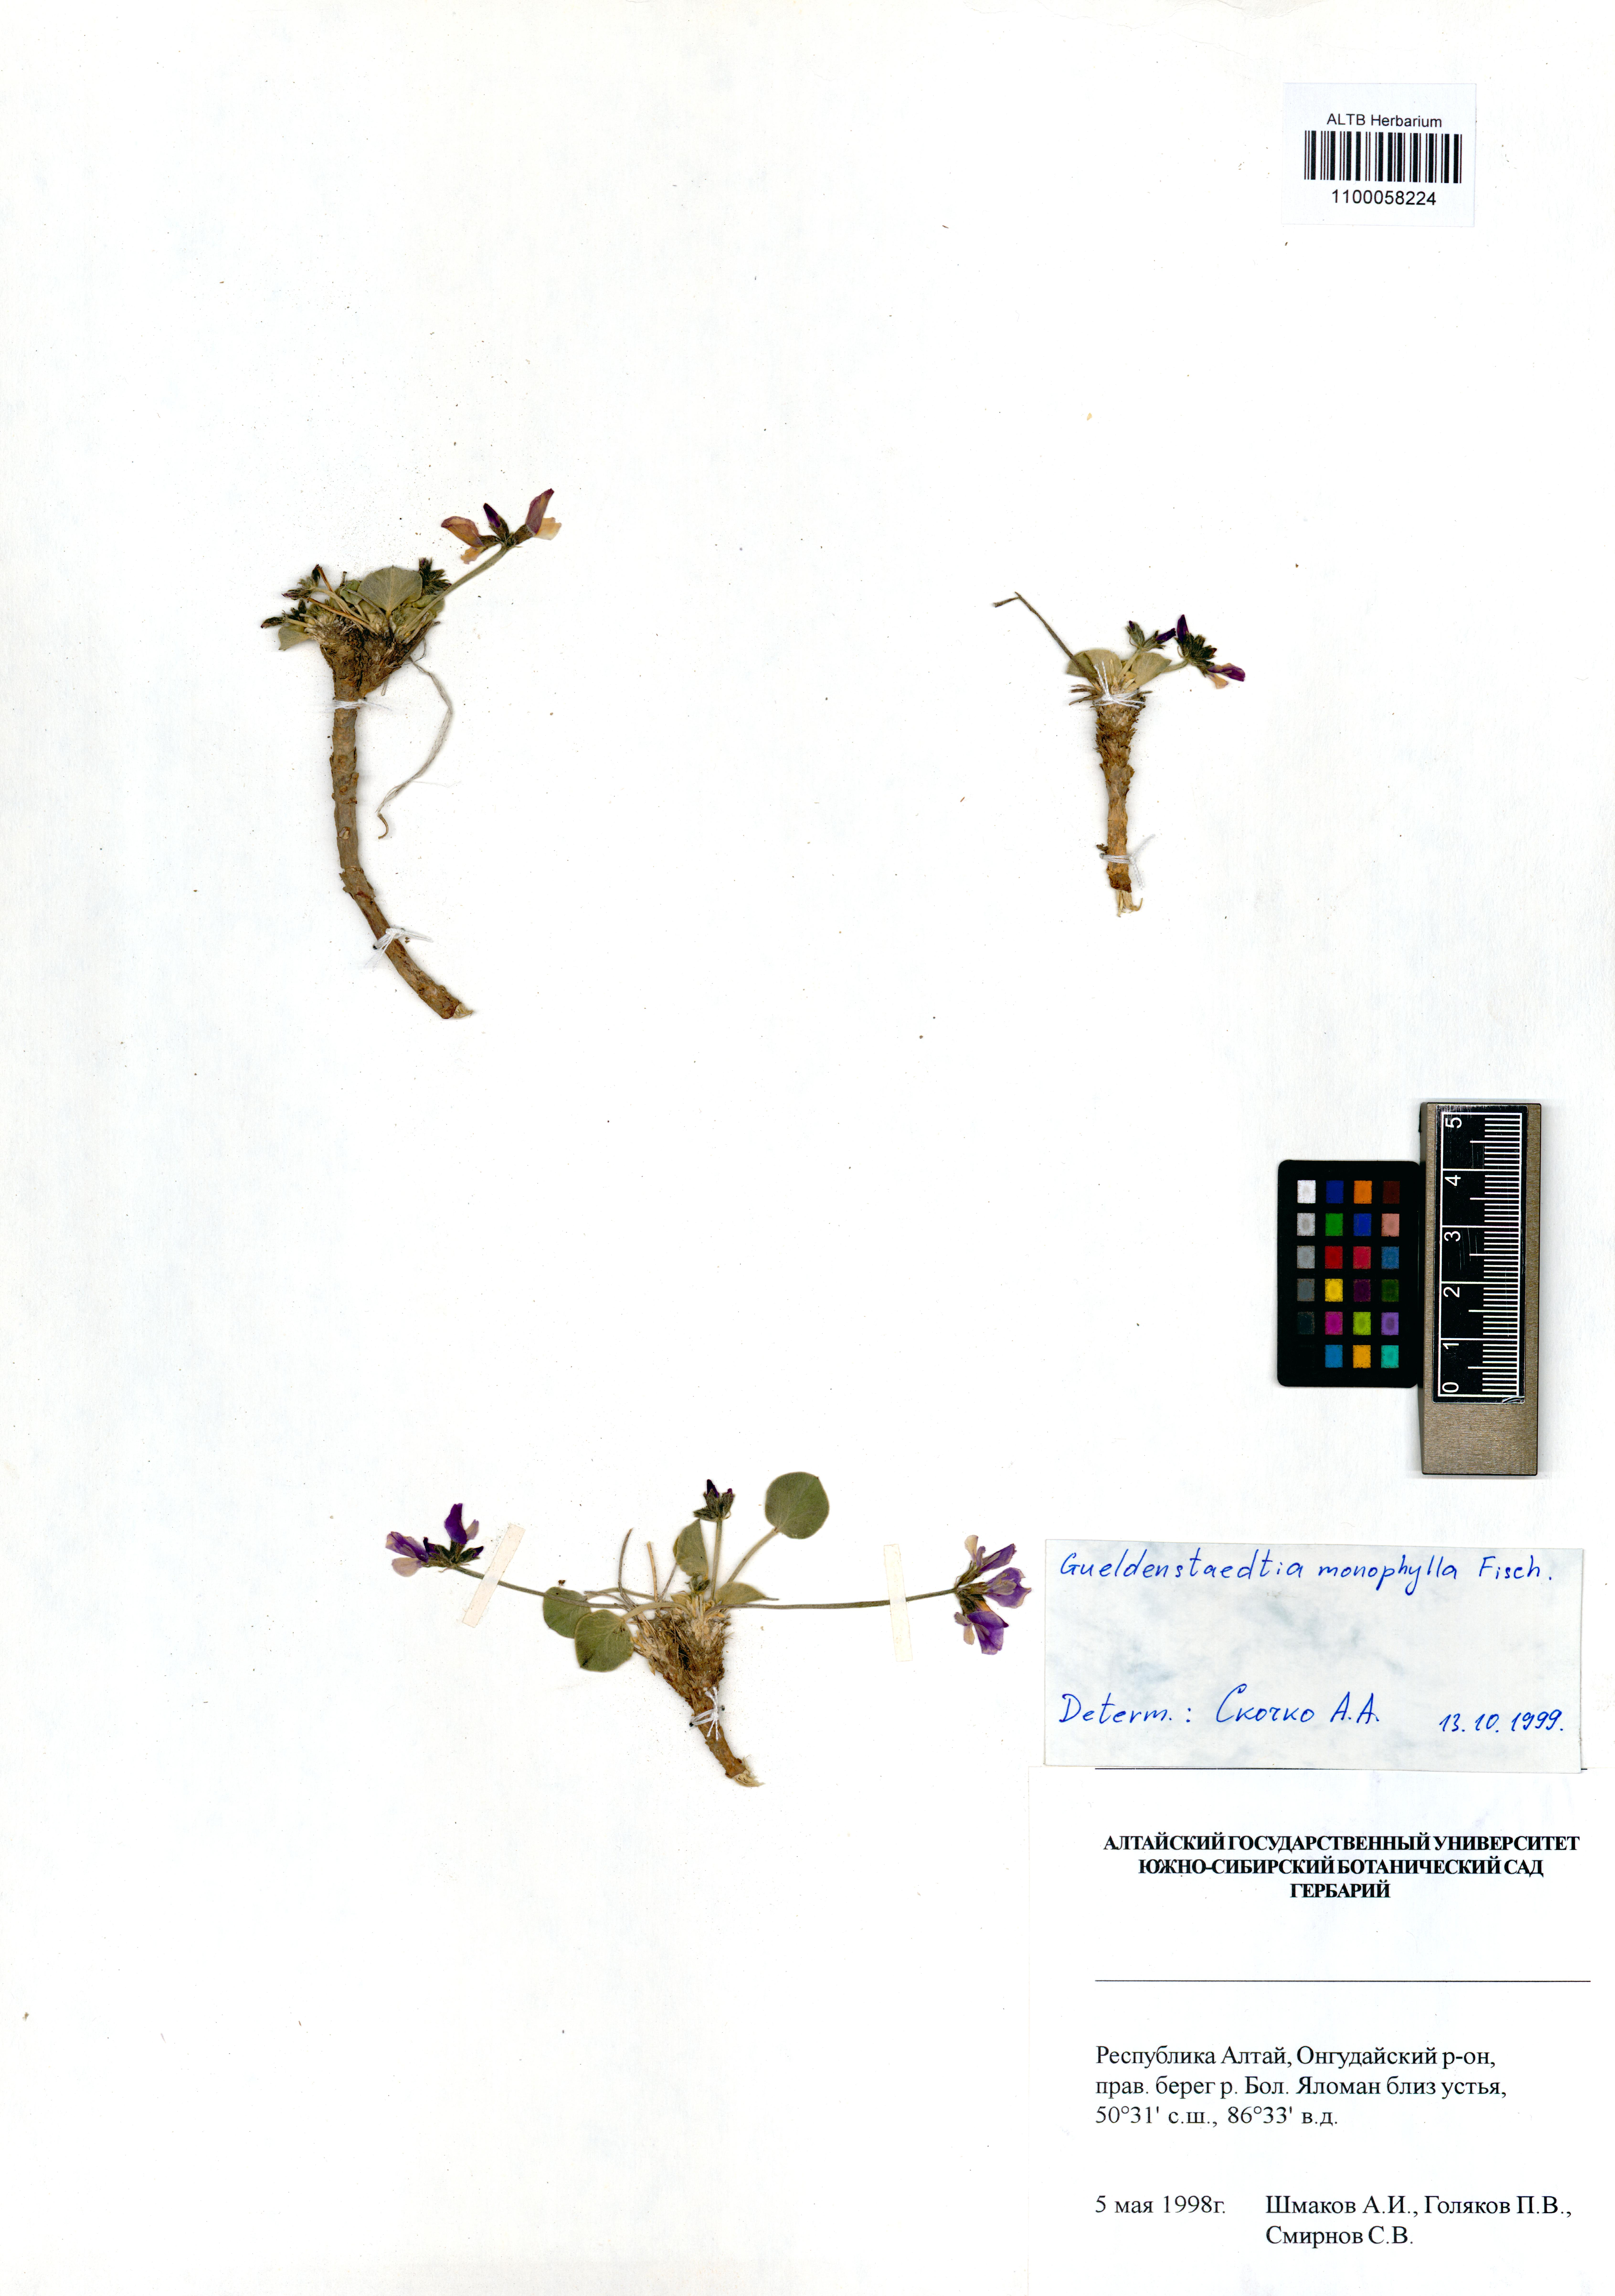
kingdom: Plantae
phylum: Tracheophyta
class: Magnoliopsida
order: Fabales
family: Fabaceae
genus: Gueldenstaedtia
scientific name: Gueldenstaedtia monophylla
